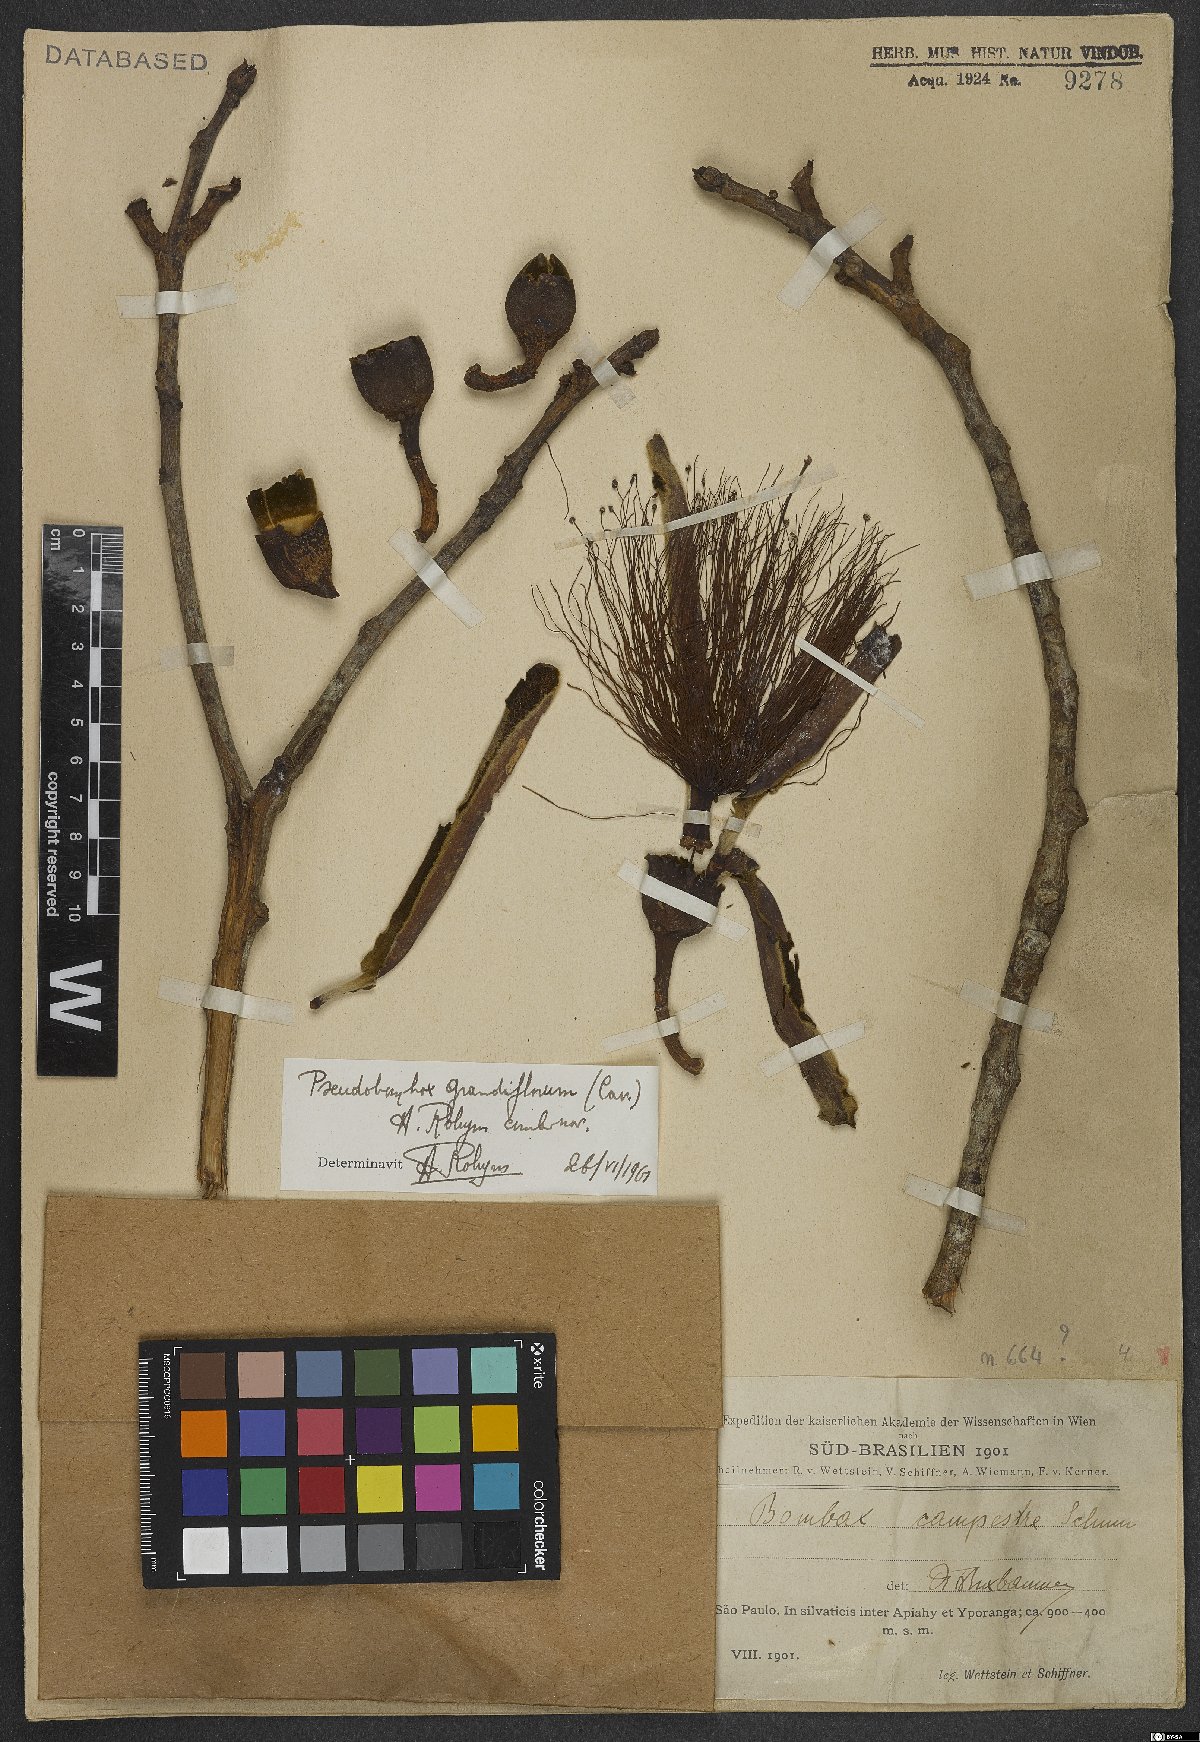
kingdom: Plantae
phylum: Tracheophyta
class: Magnoliopsida
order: Malvales
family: Malvaceae
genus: Pseudobombax
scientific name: Pseudobombax grandiflorum
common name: Brazilian shaving-brush-tree
